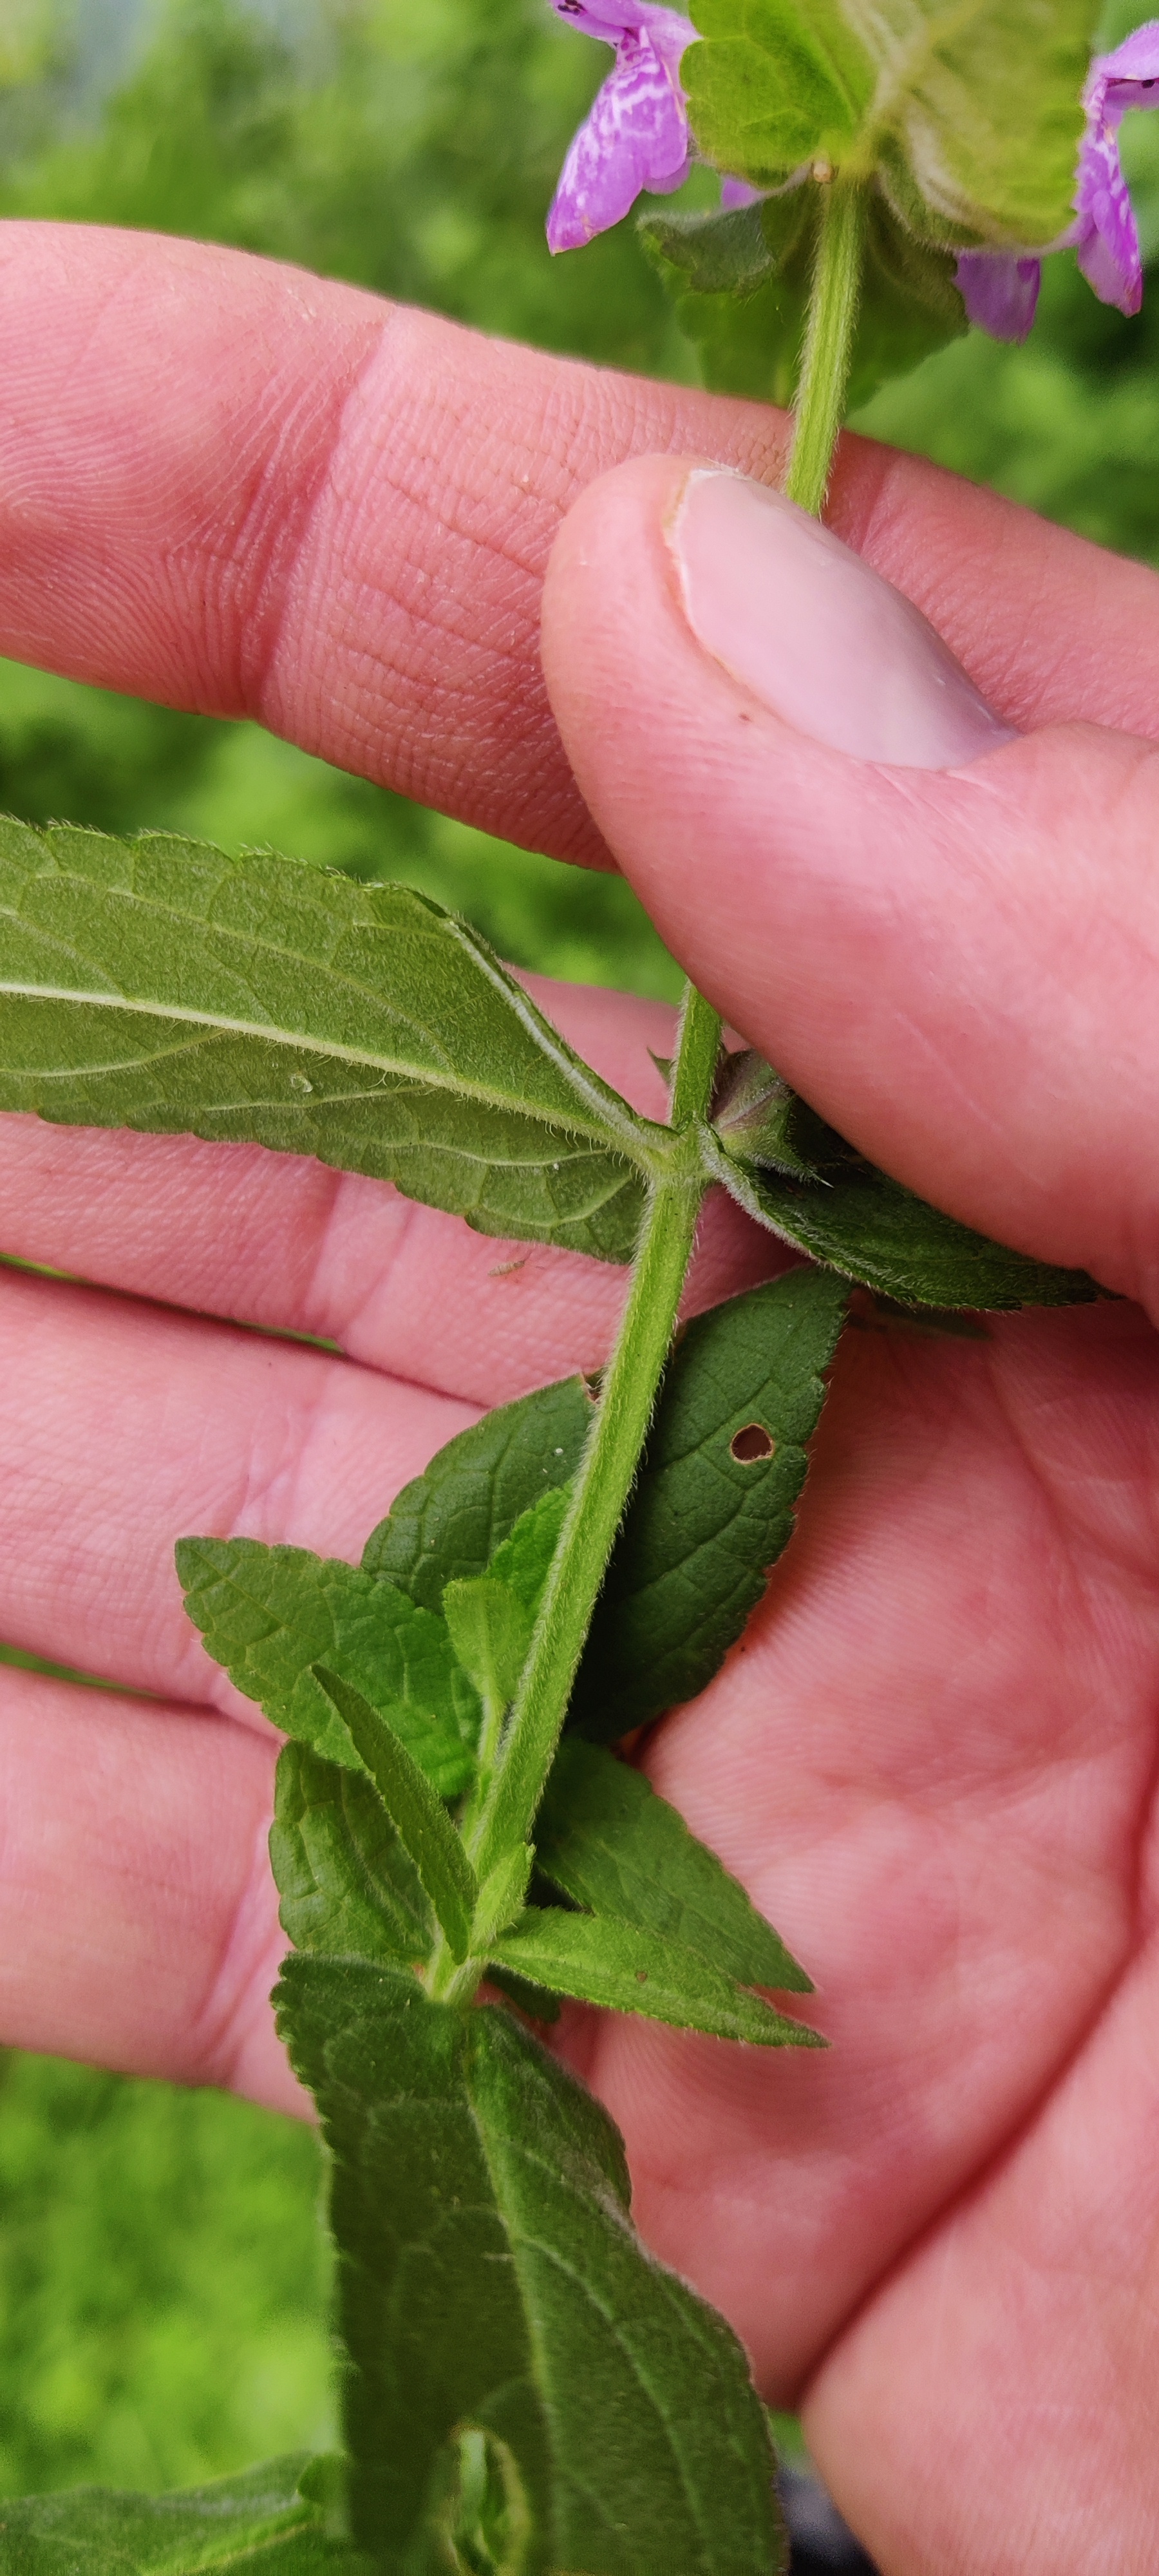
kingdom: Plantae
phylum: Tracheophyta
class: Magnoliopsida
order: Lamiales
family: Lamiaceae
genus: Stachys
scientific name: Stachys palustris
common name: Kær-galtetand
